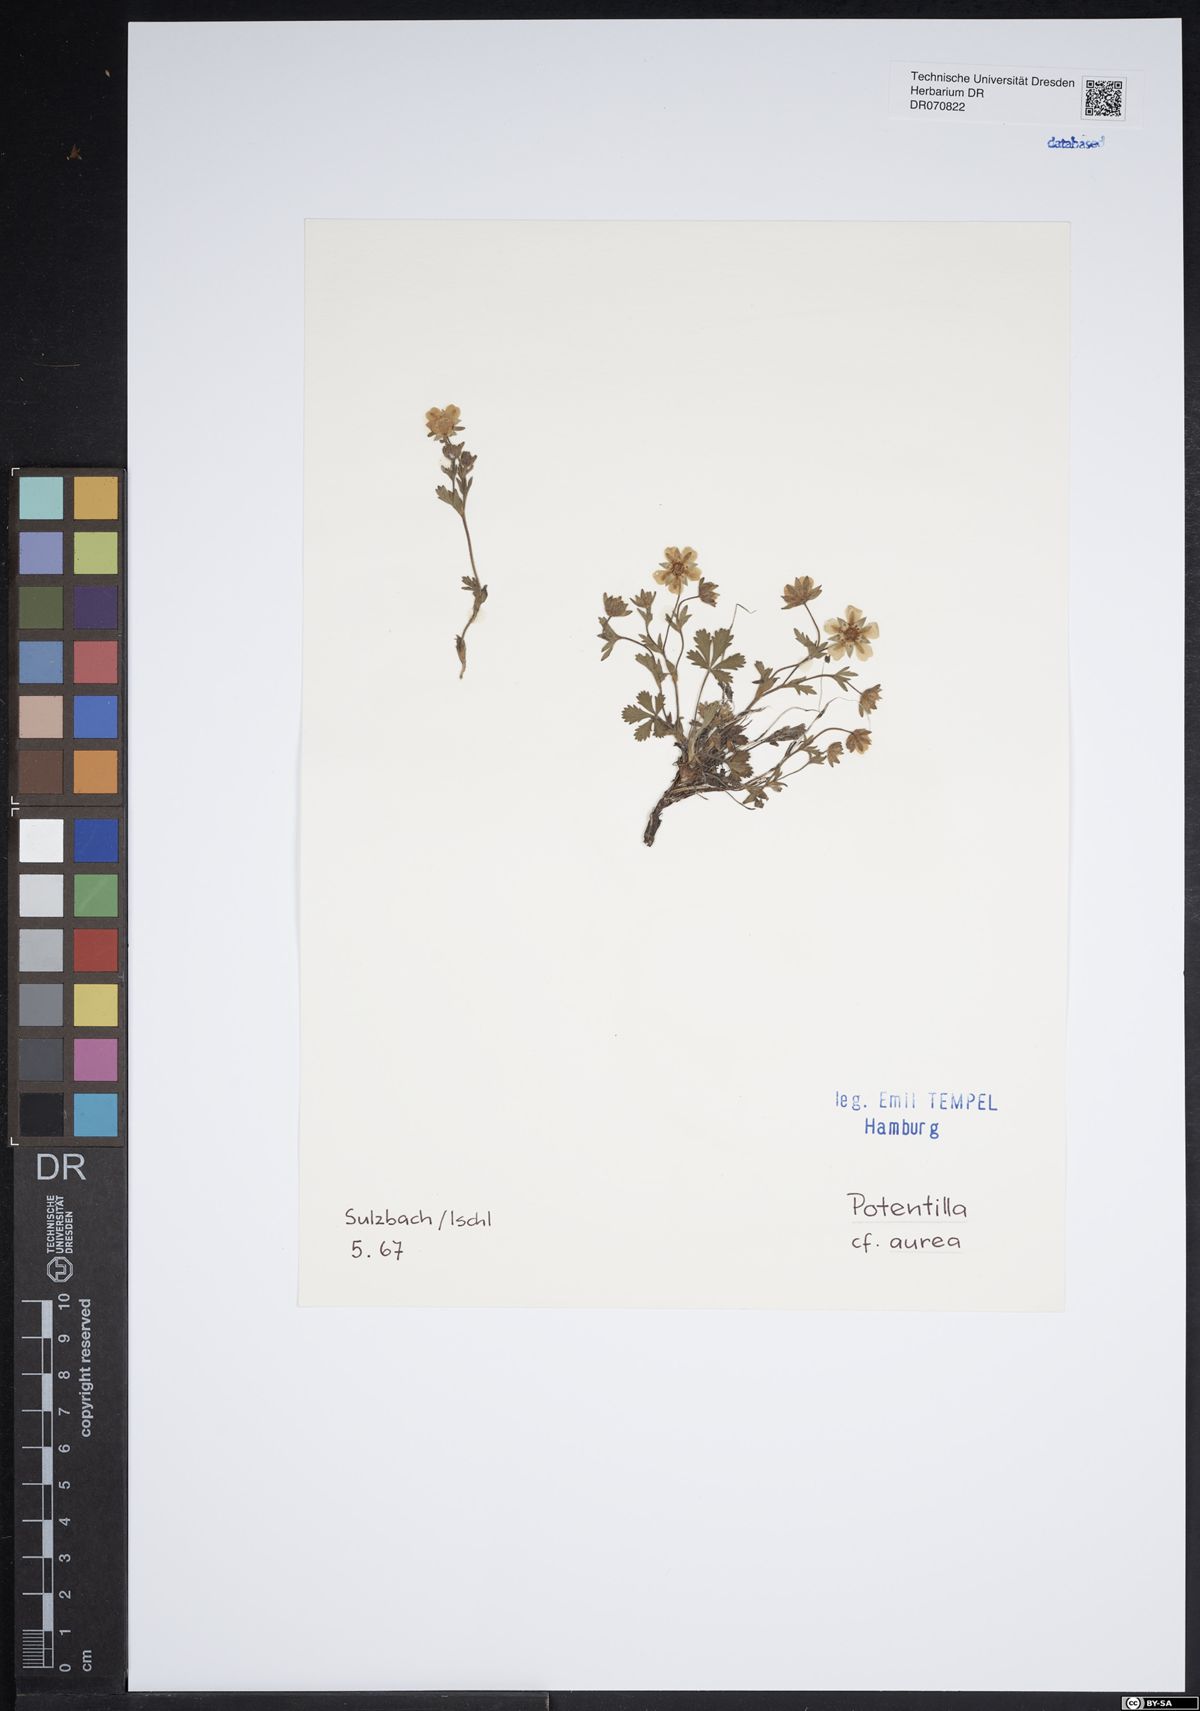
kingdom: Plantae
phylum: Tracheophyta
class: Magnoliopsida
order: Rosales
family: Rosaceae
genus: Potentilla
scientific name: Potentilla aurea
